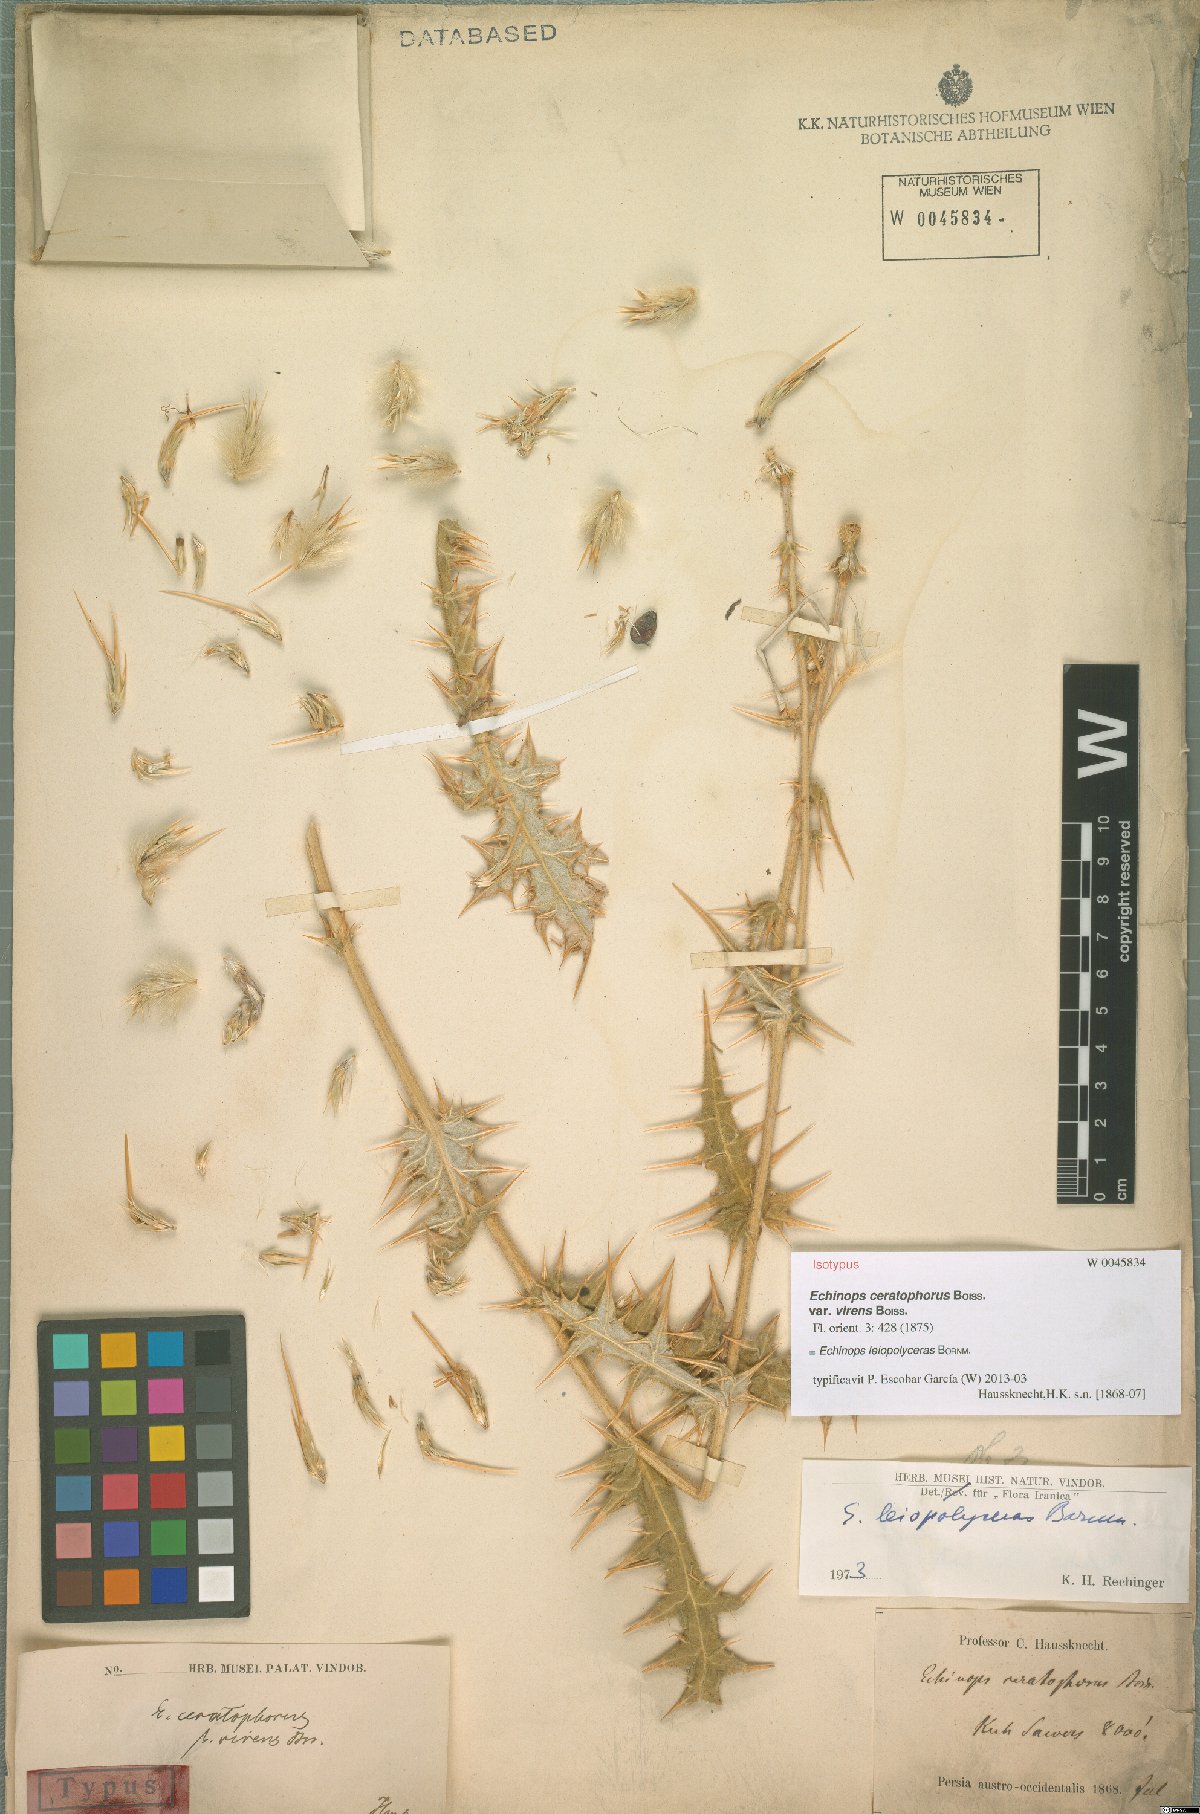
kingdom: Plantae
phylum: Tracheophyta
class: Magnoliopsida
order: Asterales
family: Asteraceae
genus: Echinops
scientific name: Echinops leiopolyceras
